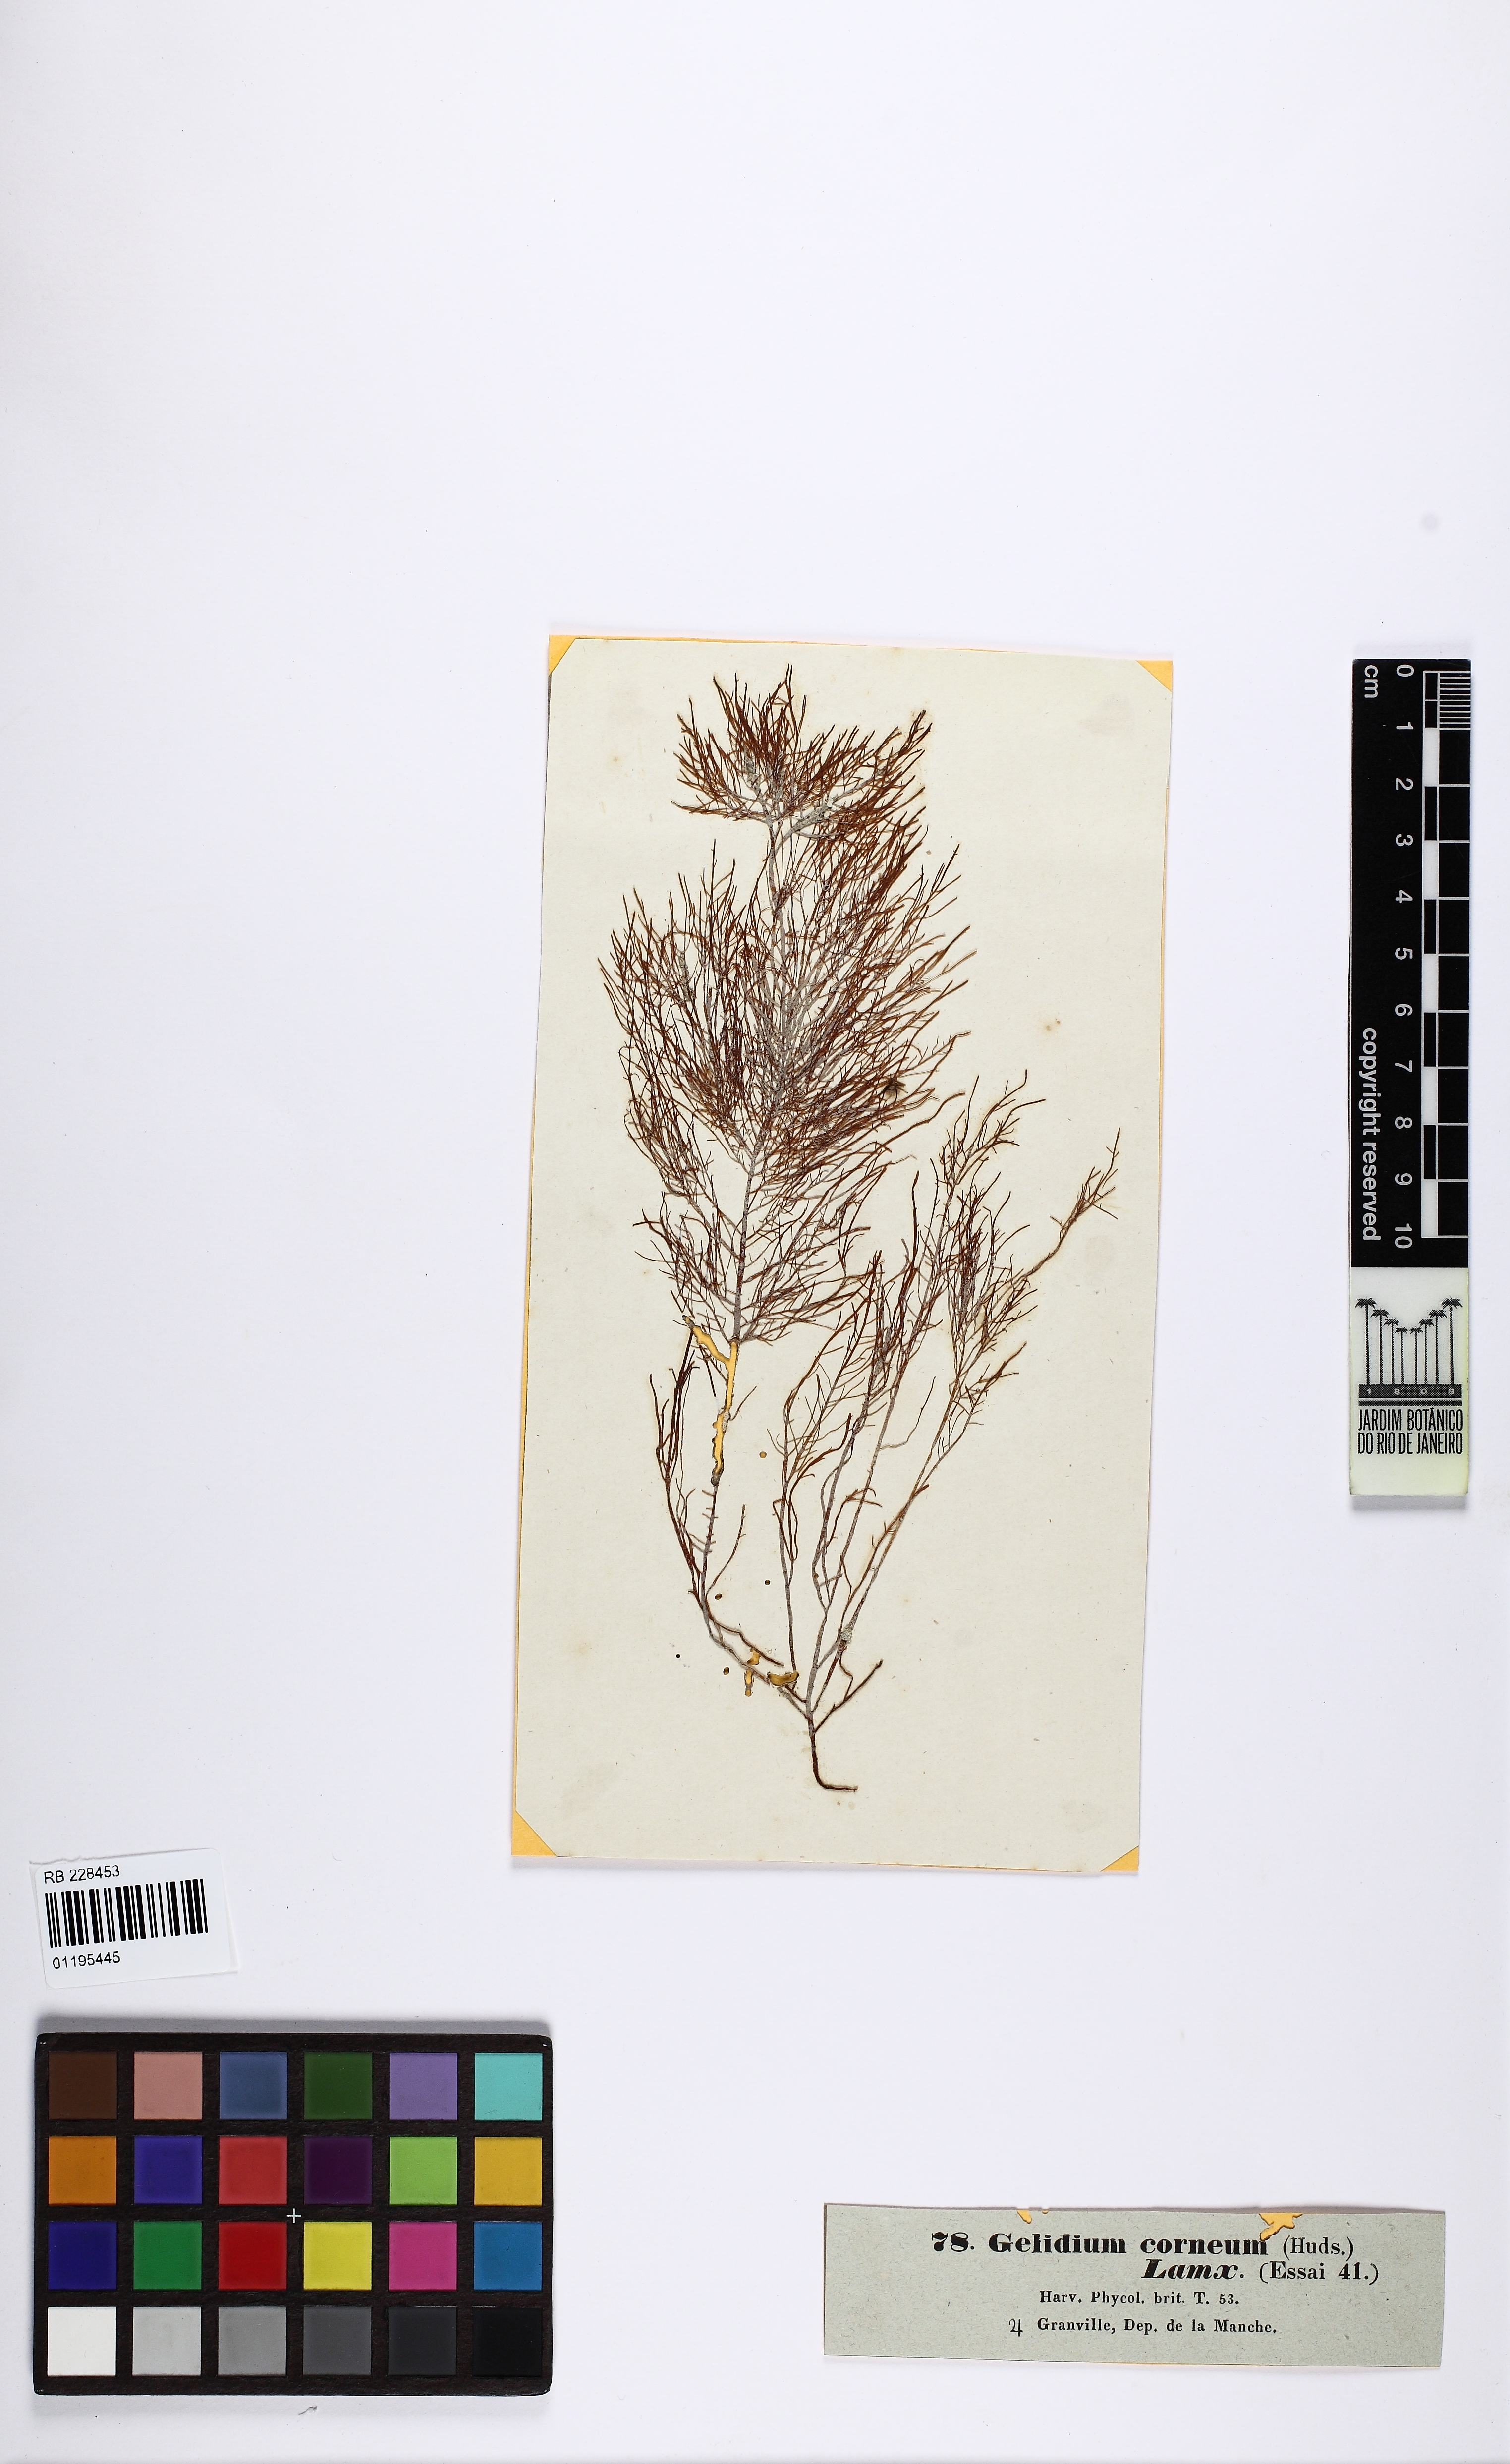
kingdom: Plantae
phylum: Rhodophyta
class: Florideophyceae
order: Gelidiales
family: Gelidiaceae
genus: Gelidium
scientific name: Gelidium spinosum
